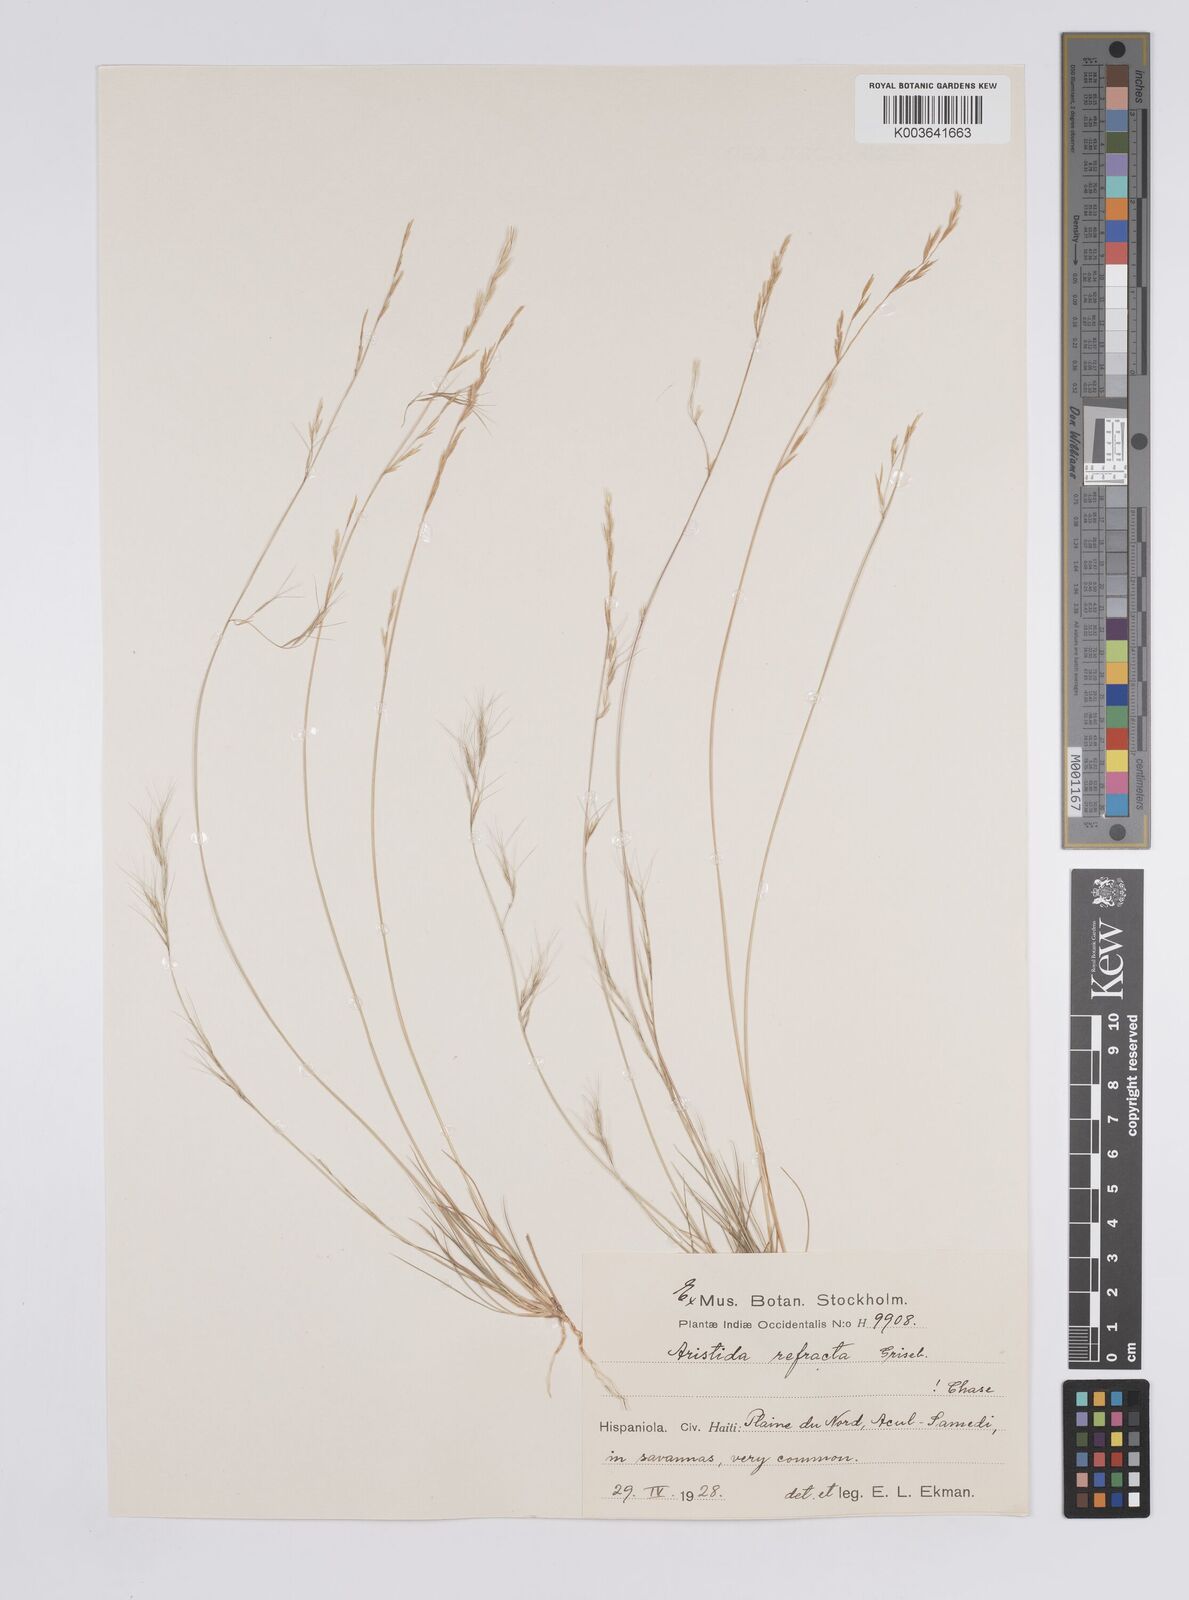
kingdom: Plantae
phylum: Tracheophyta
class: Liliopsida
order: Poales
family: Poaceae
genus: Aristida
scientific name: Aristida refracta
